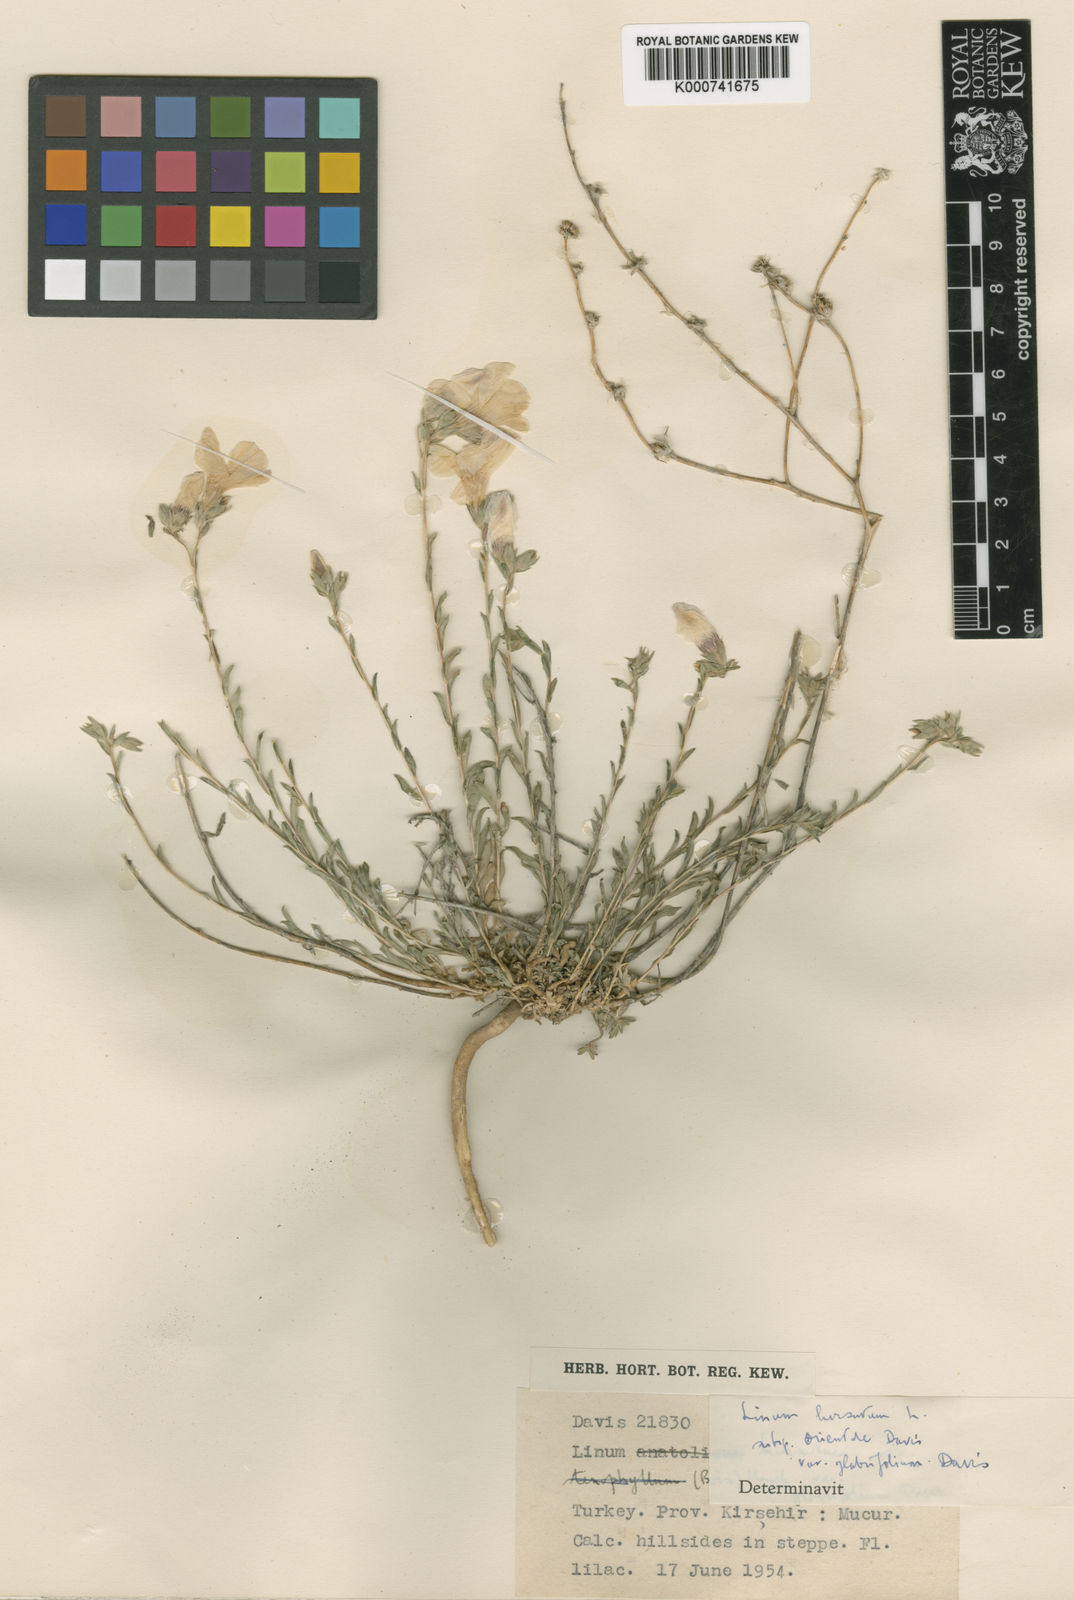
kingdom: Plantae
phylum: Tracheophyta
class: Magnoliopsida
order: Malpighiales
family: Linaceae
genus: Linum
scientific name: Linum hirsutum
